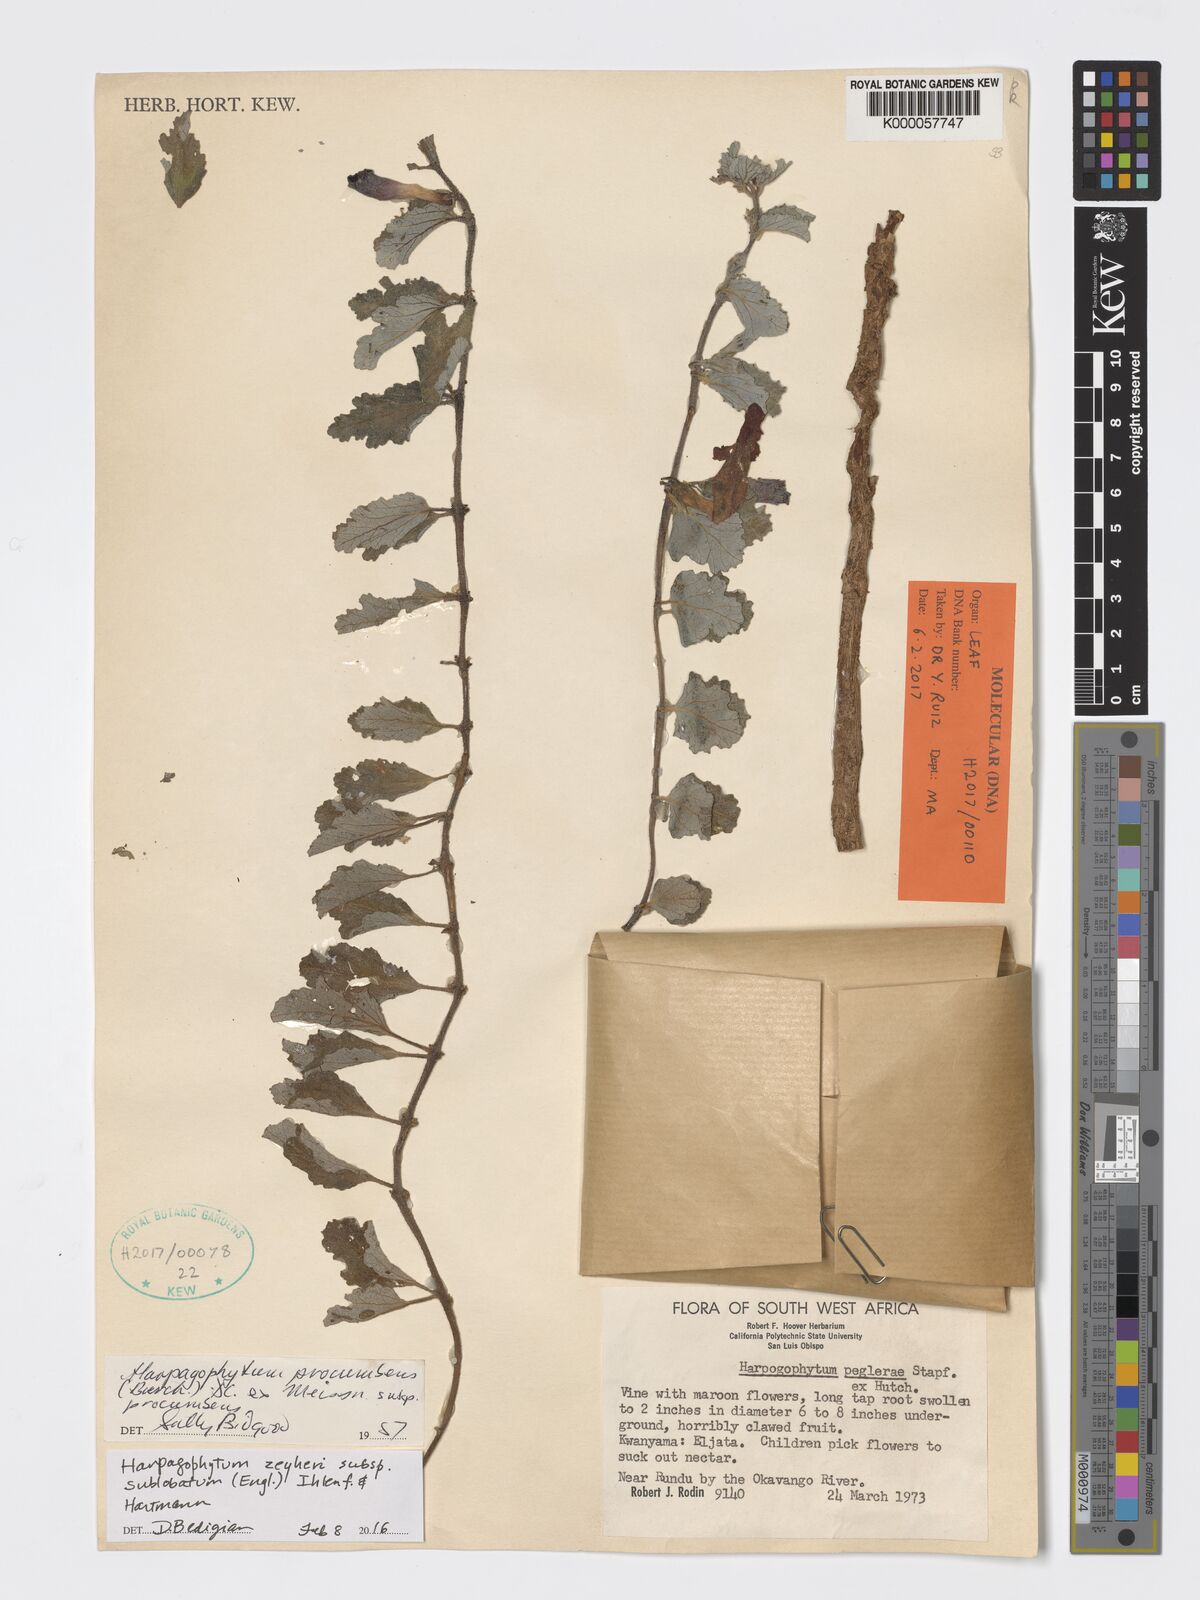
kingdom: Plantae
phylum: Tracheophyta
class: Magnoliopsida
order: Lamiales
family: Pedaliaceae
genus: Harpagophytum
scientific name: Harpagophytum procumbens
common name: Grappleplant
